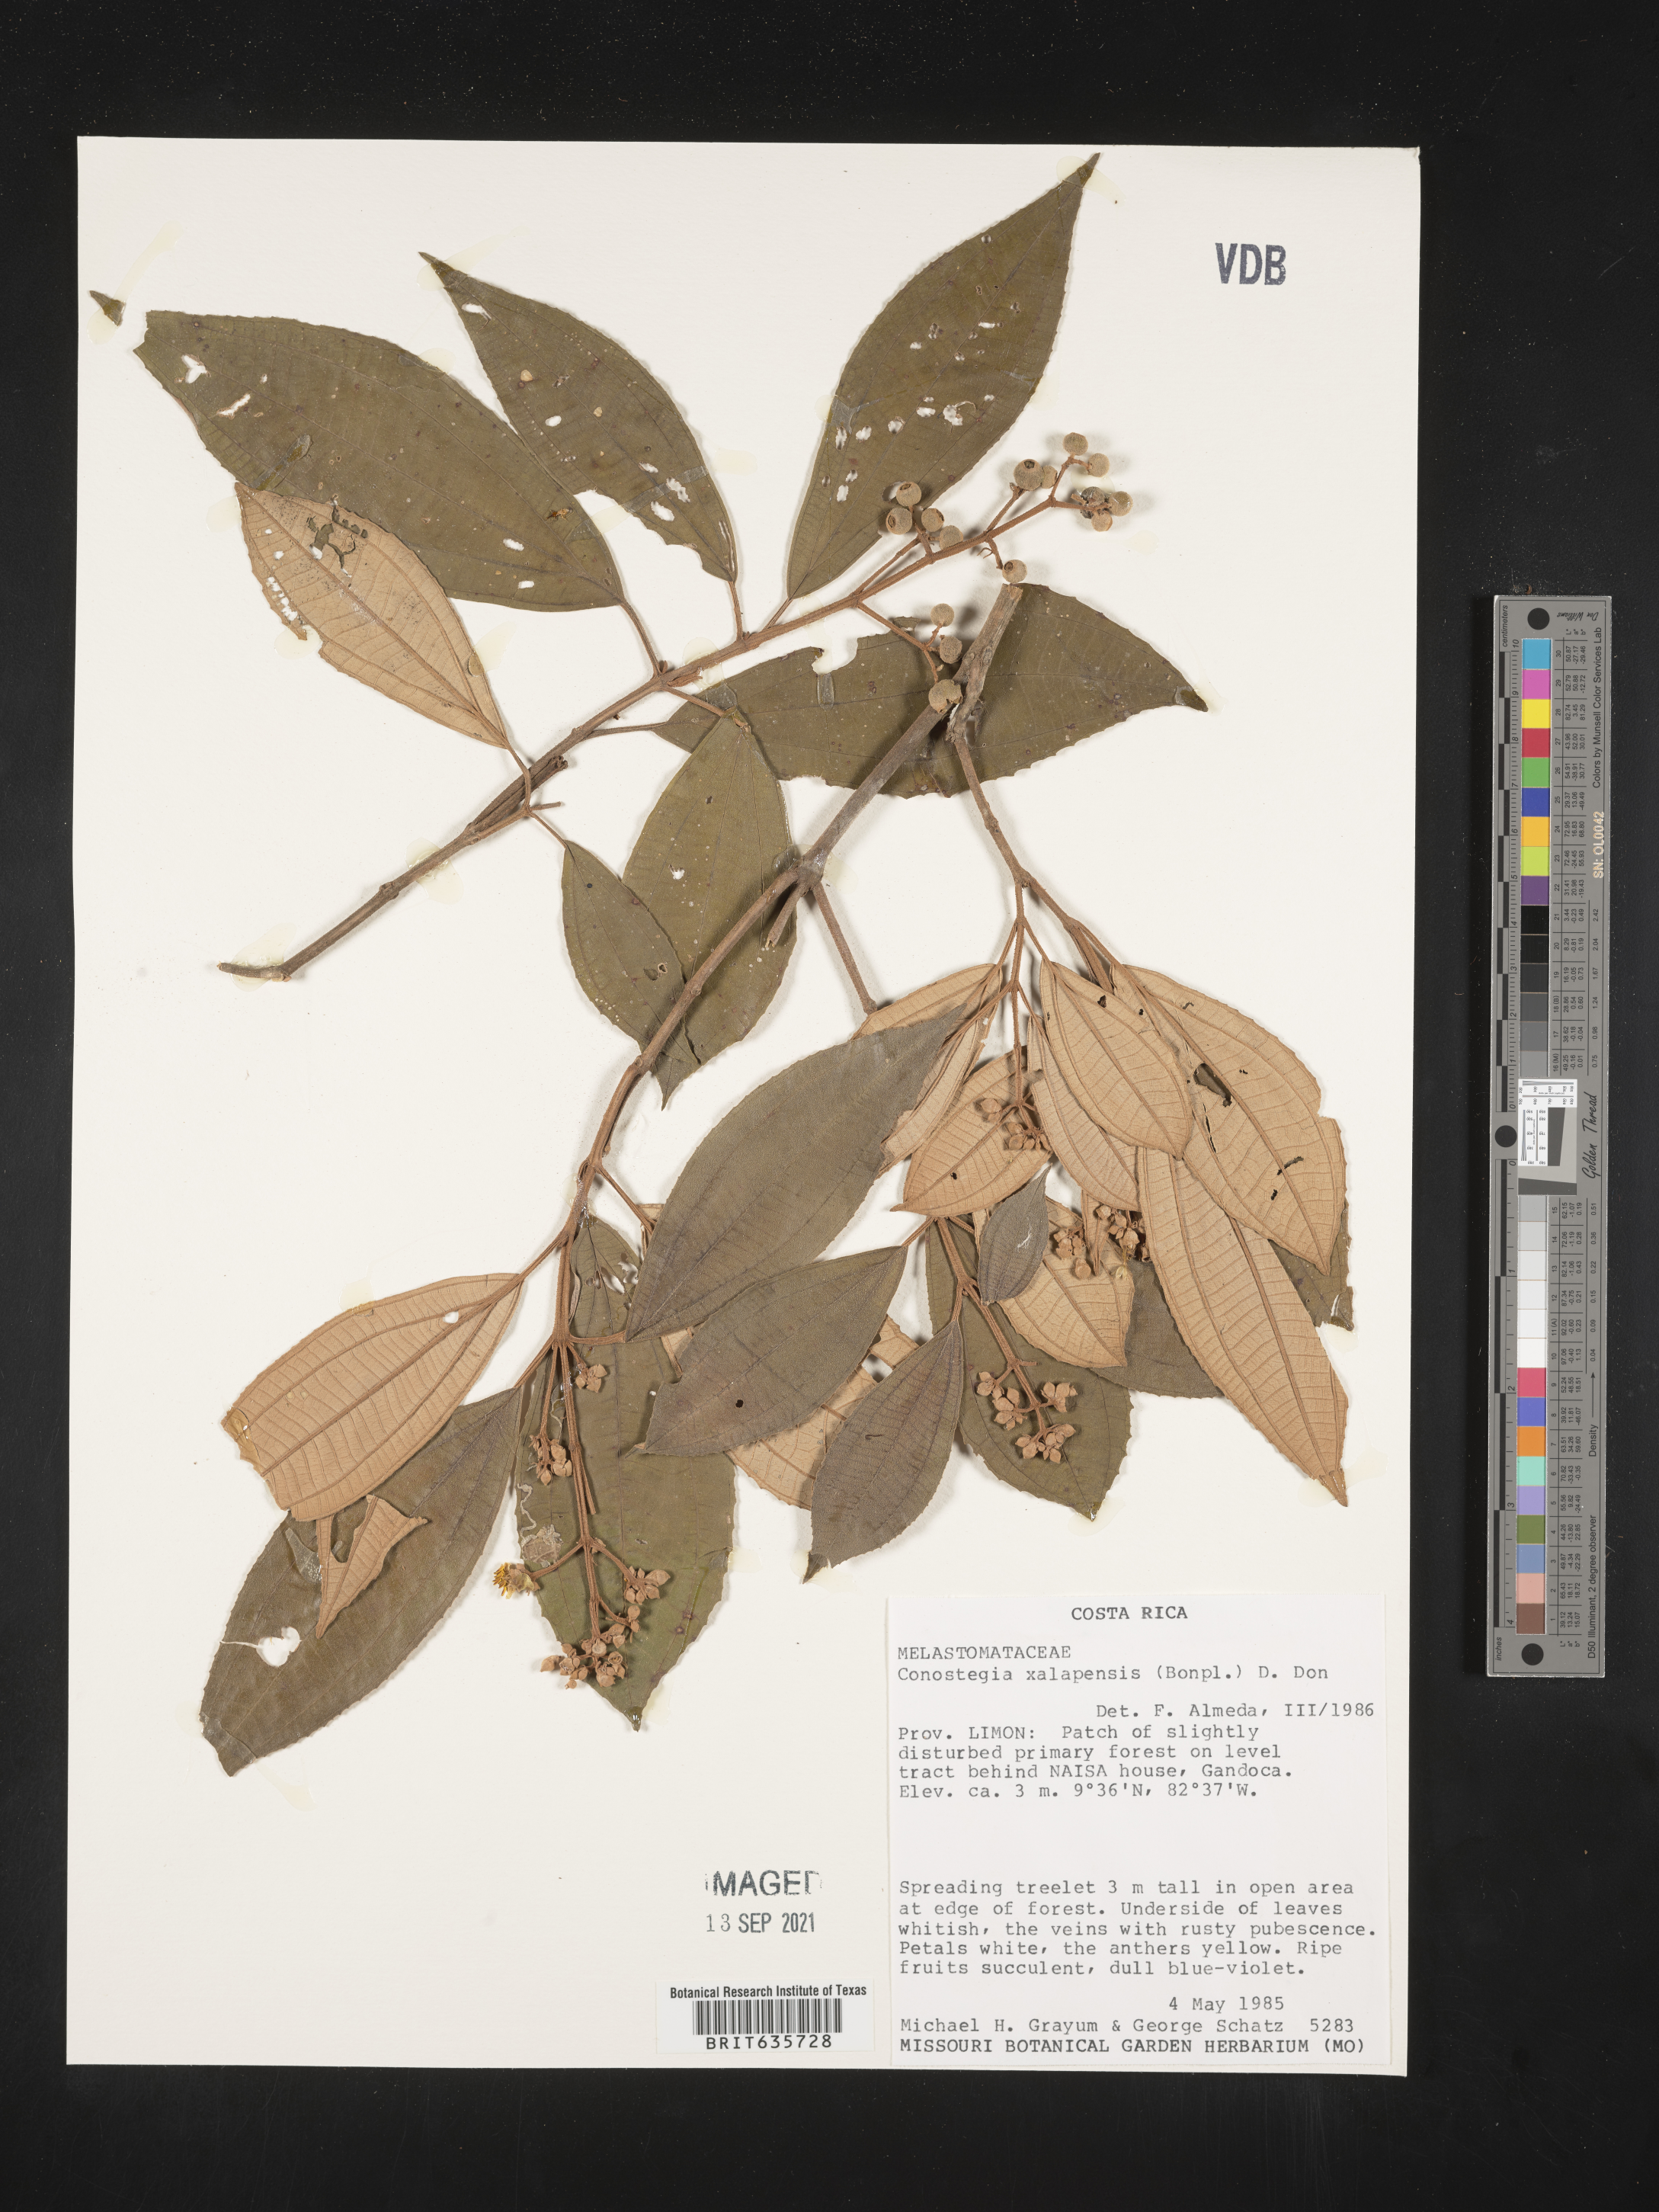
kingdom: Plantae
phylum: Tracheophyta
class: Magnoliopsida
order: Myrtales
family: Melastomataceae
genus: Miconia
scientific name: Miconia
